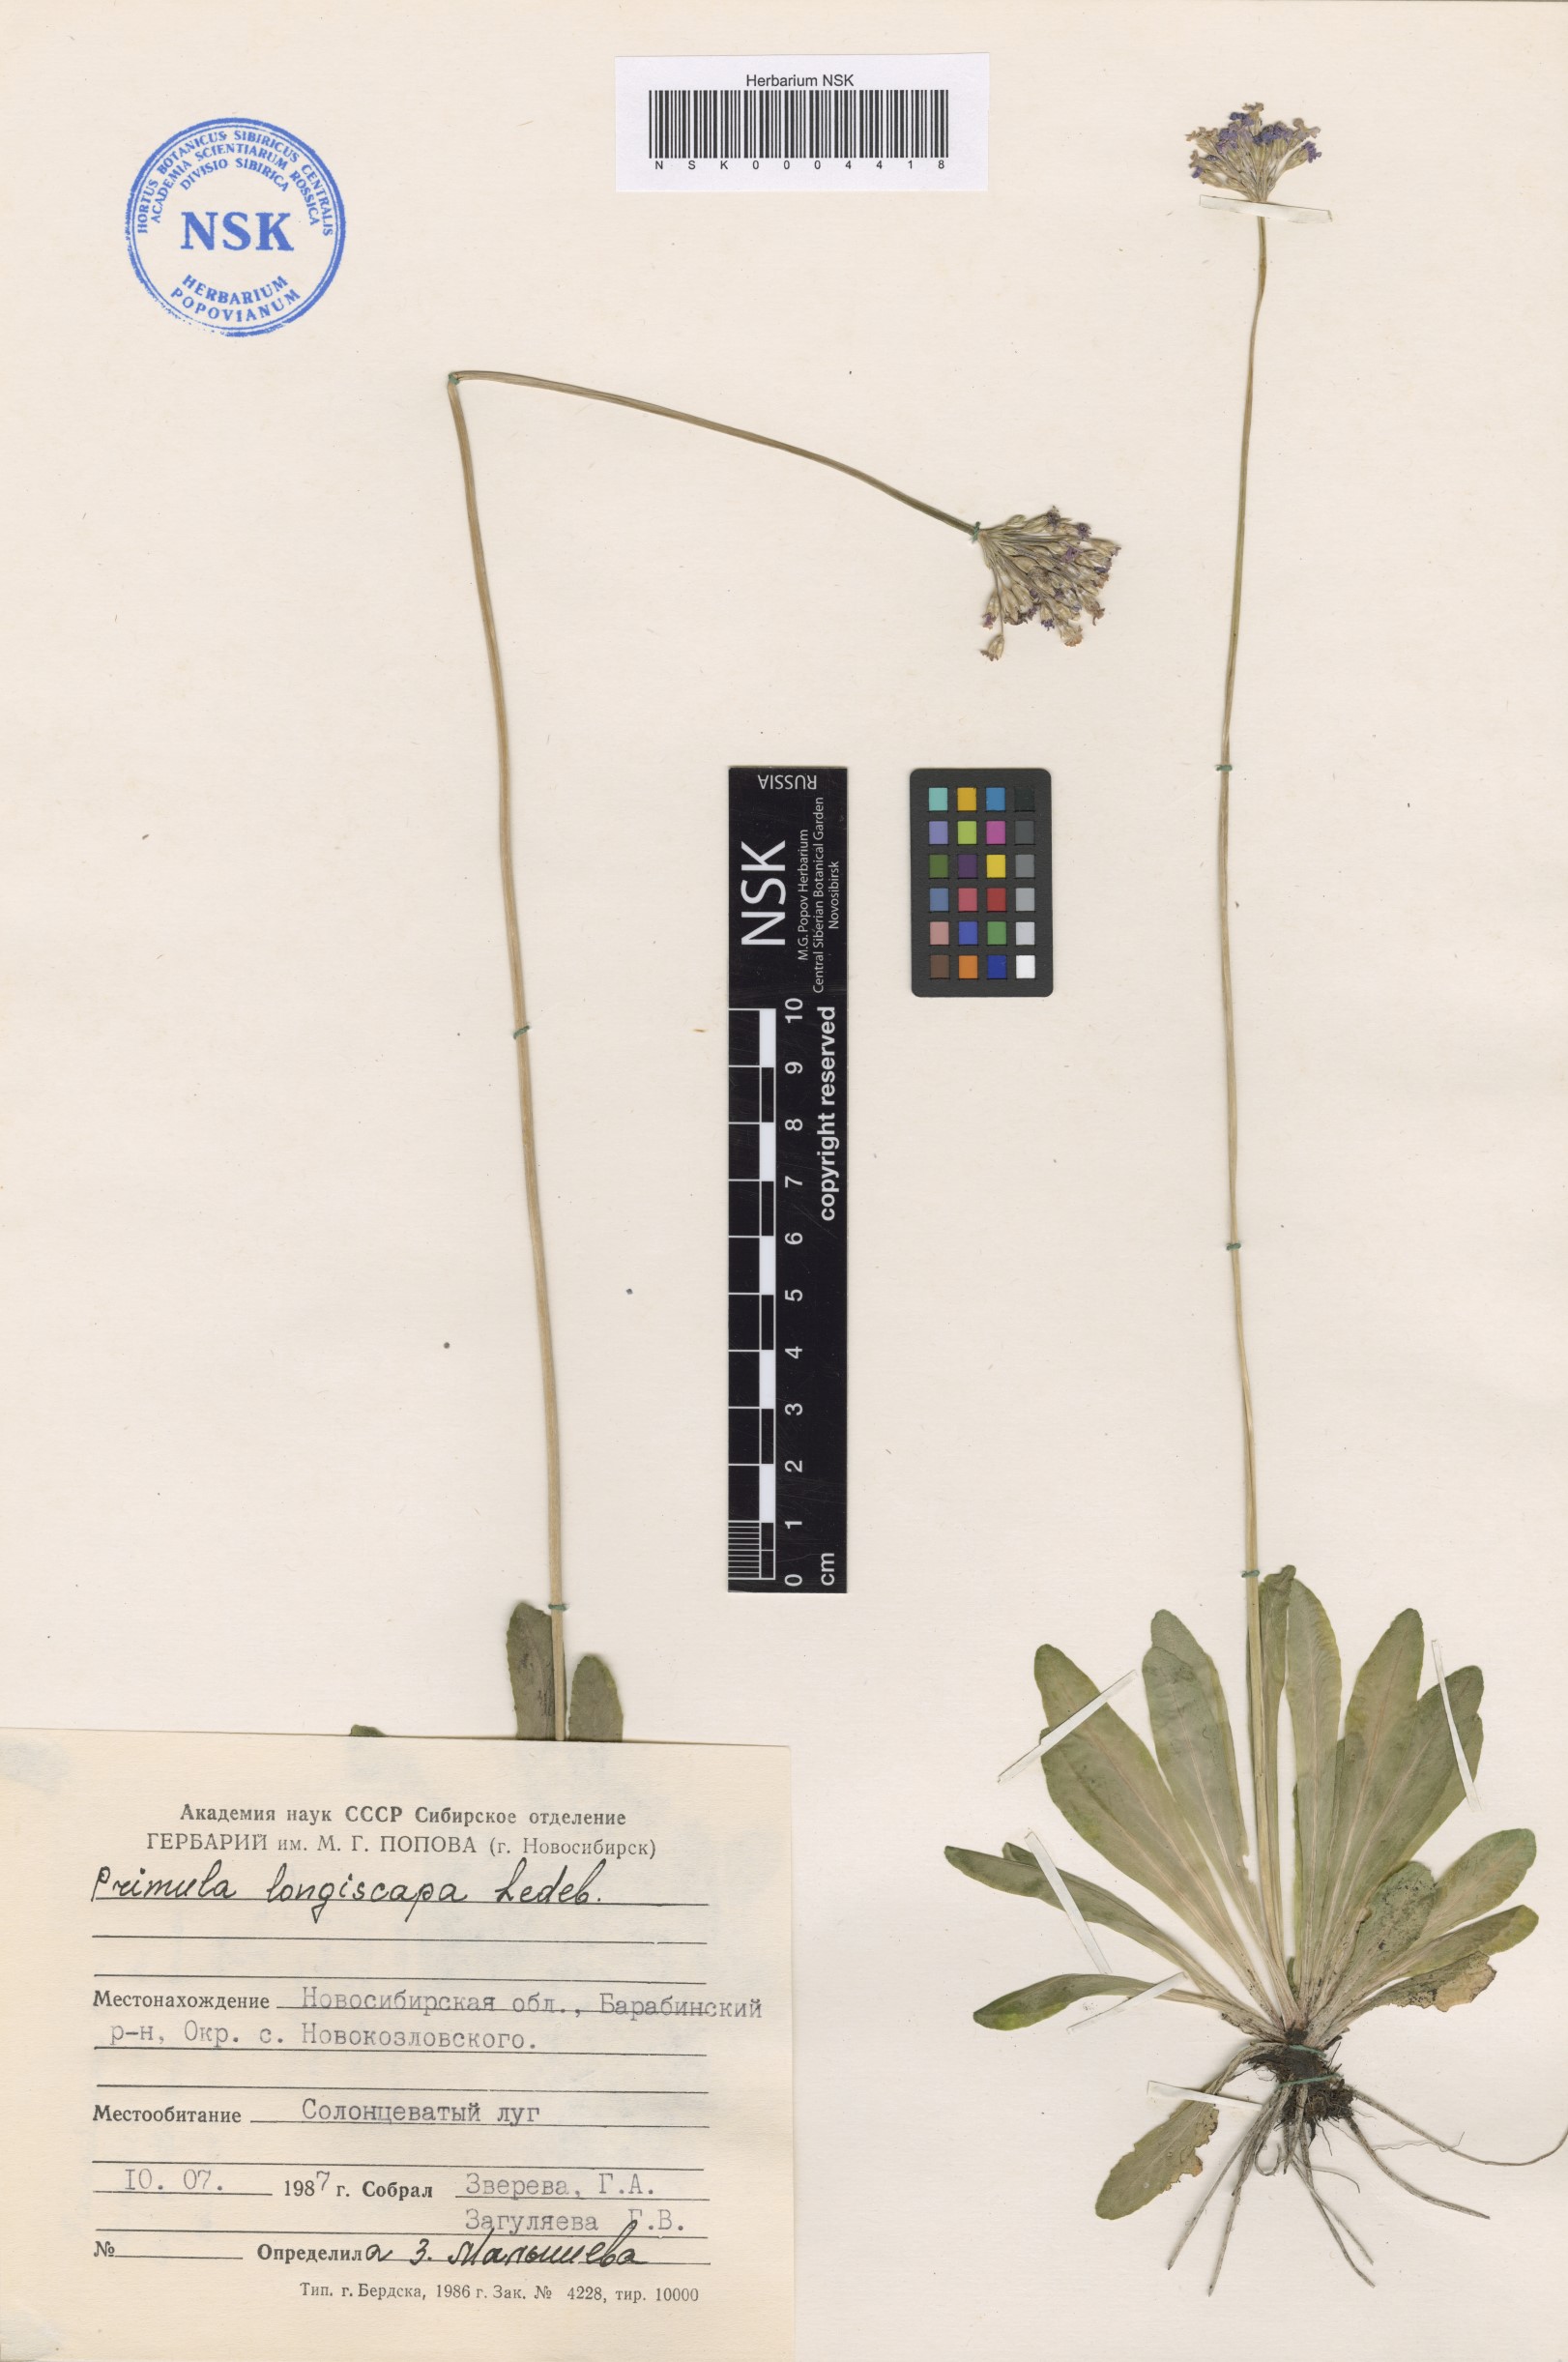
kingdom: Plantae
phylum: Tracheophyta
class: Magnoliopsida
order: Ericales
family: Primulaceae
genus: Primula
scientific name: Primula longiscapa
